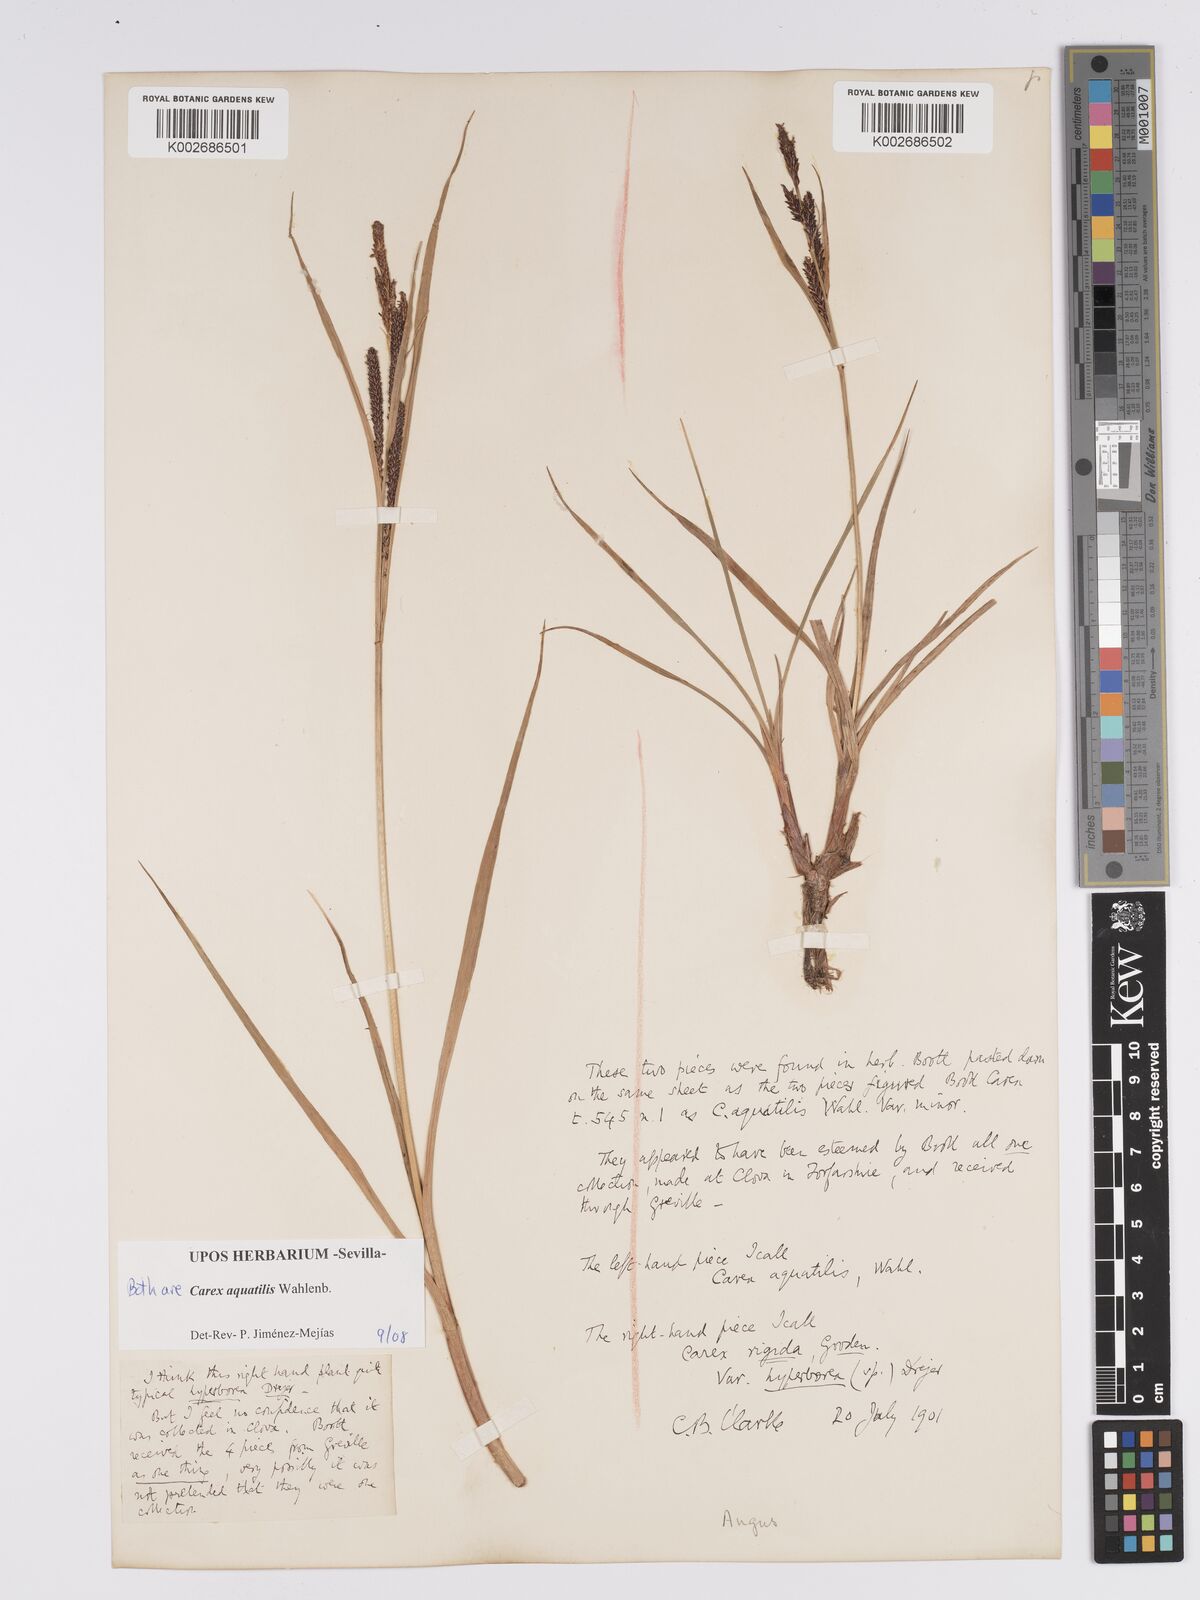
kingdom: Plantae
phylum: Tracheophyta
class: Liliopsida
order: Poales
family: Cyperaceae
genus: Carex
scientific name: Carex aquatilis
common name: Water sedge
